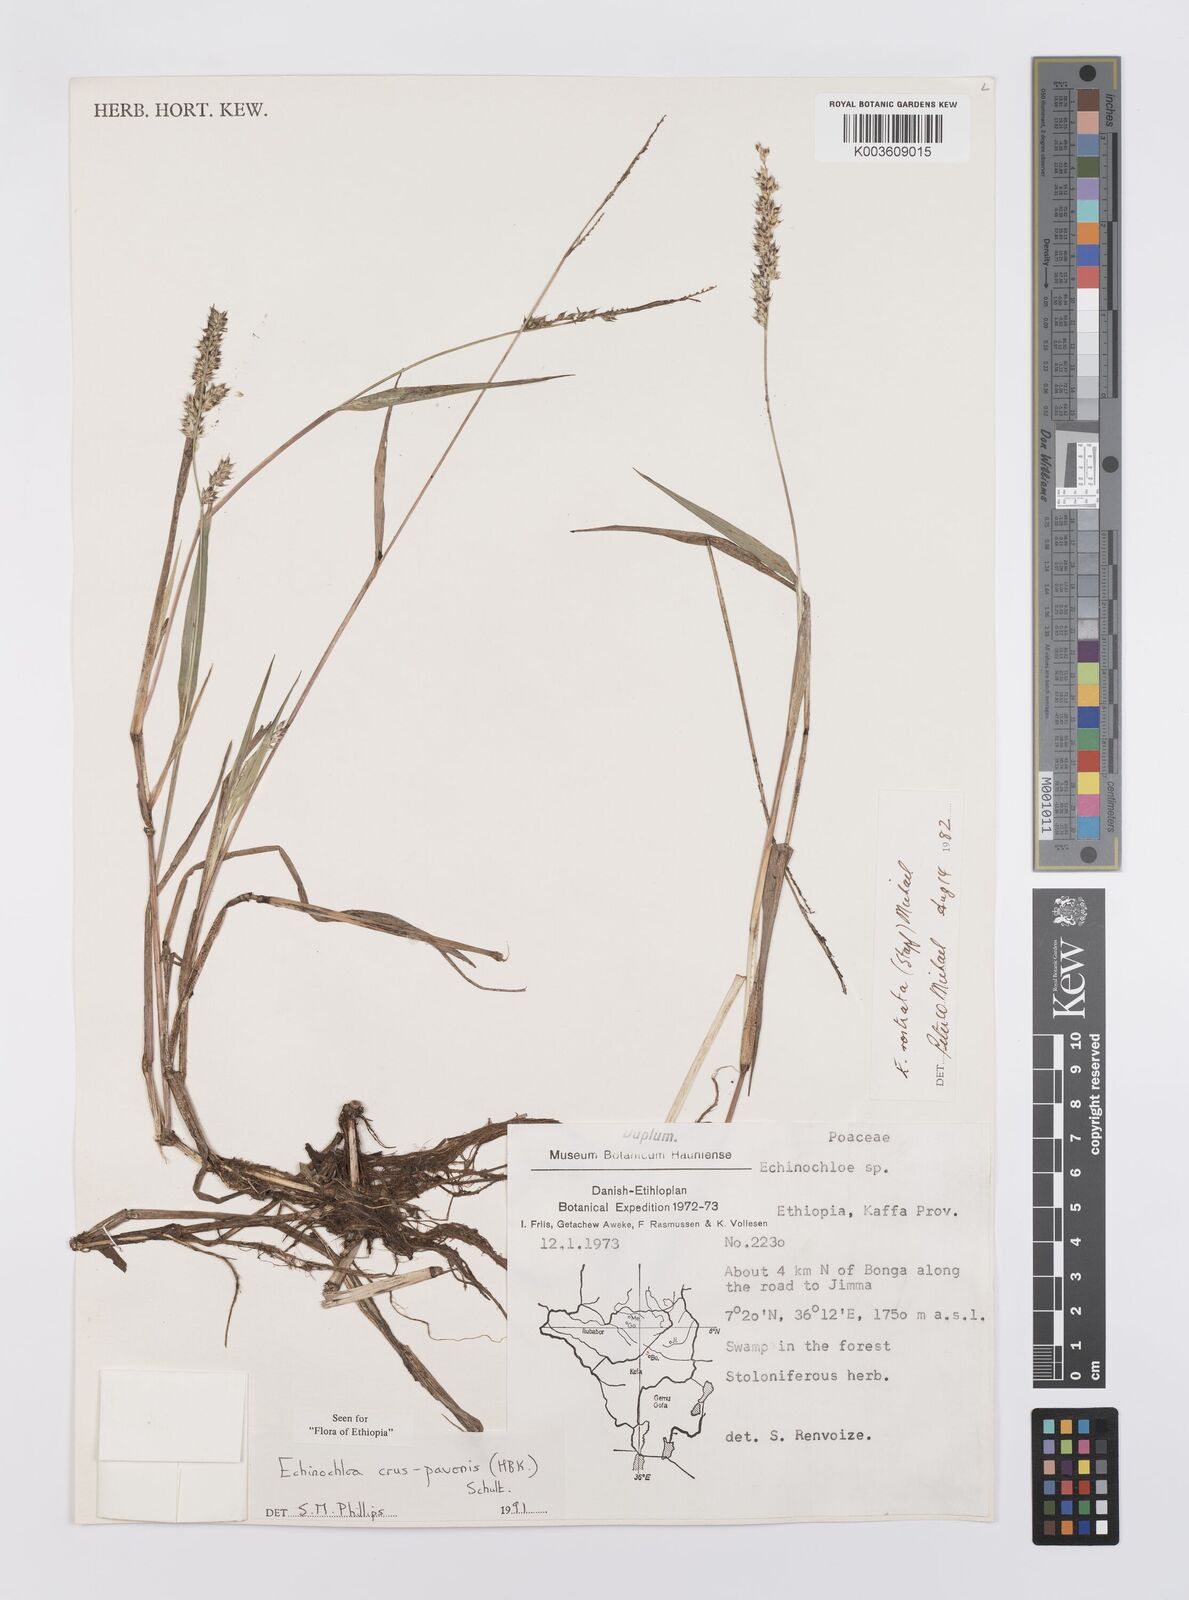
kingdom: Plantae
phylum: Tracheophyta
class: Liliopsida
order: Poales
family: Poaceae
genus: Echinochloa
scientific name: Echinochloa crus-pavonis
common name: Gulf cockspur grass
